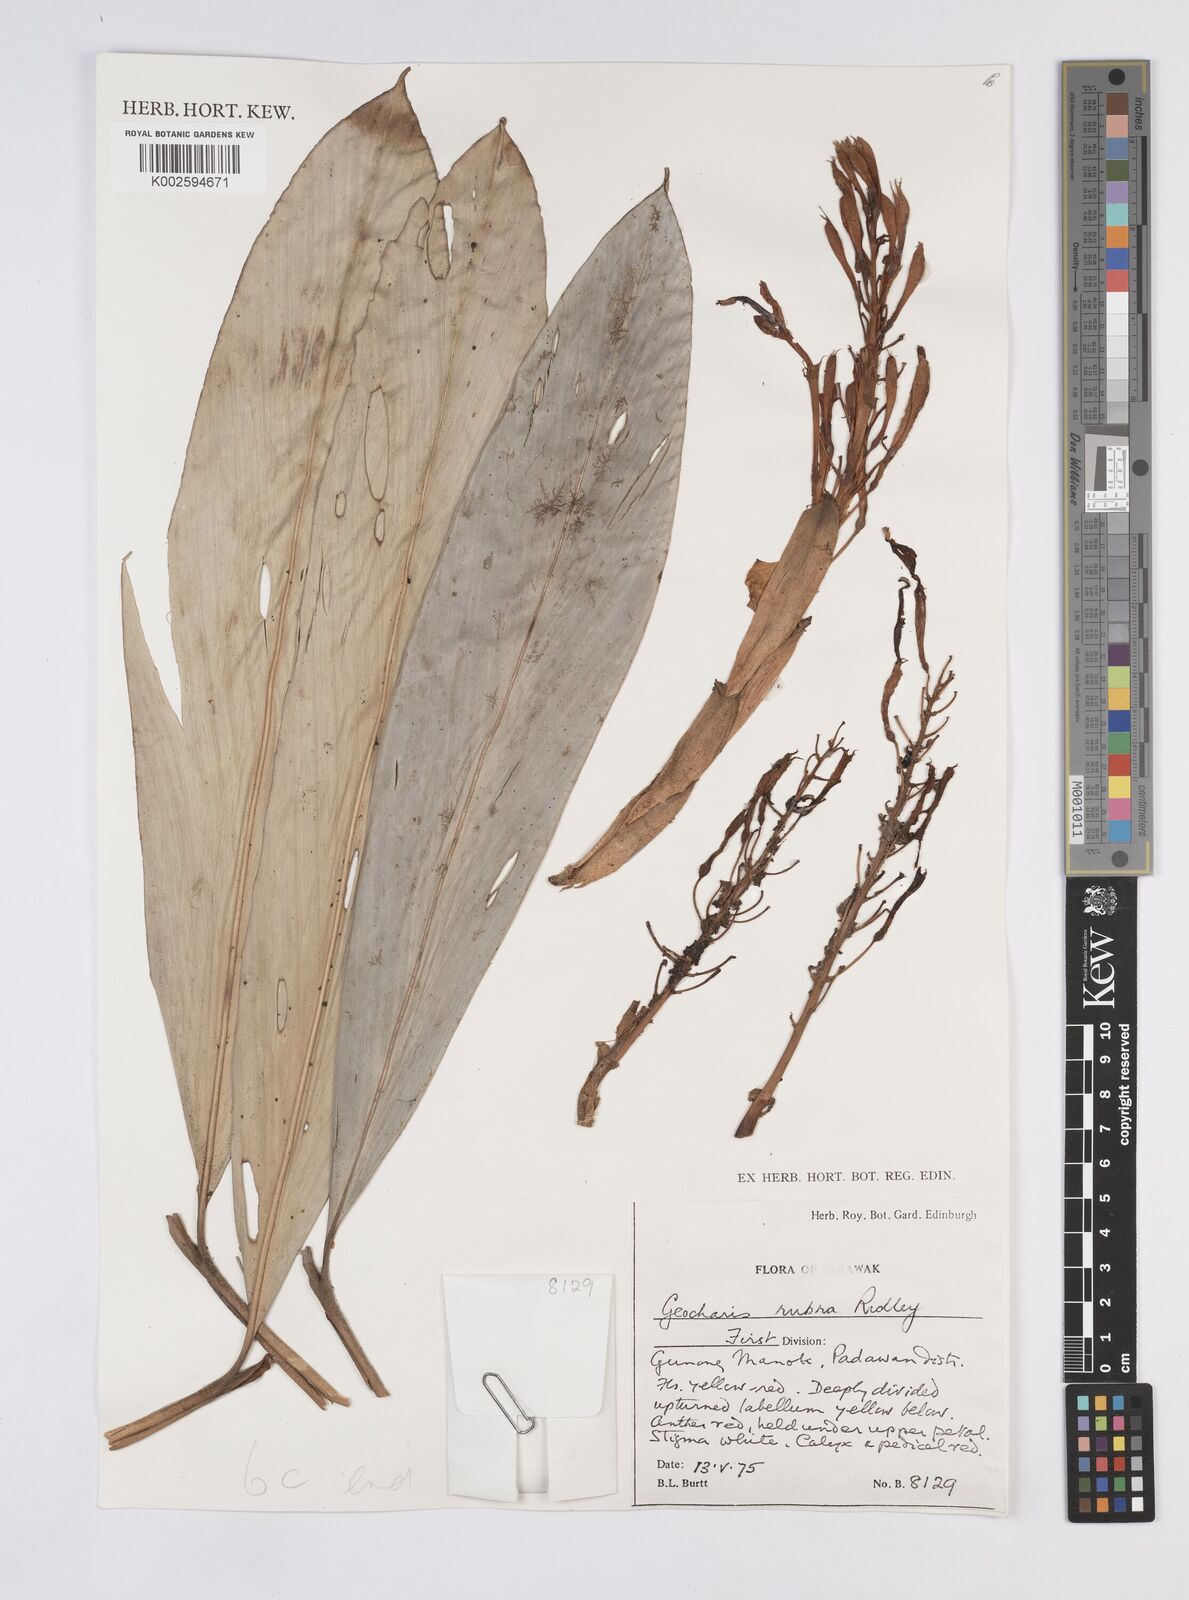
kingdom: Plantae
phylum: Tracheophyta
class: Liliopsida
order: Zingiberales
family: Zingiberaceae
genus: Geocharis
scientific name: Geocharis rubra
